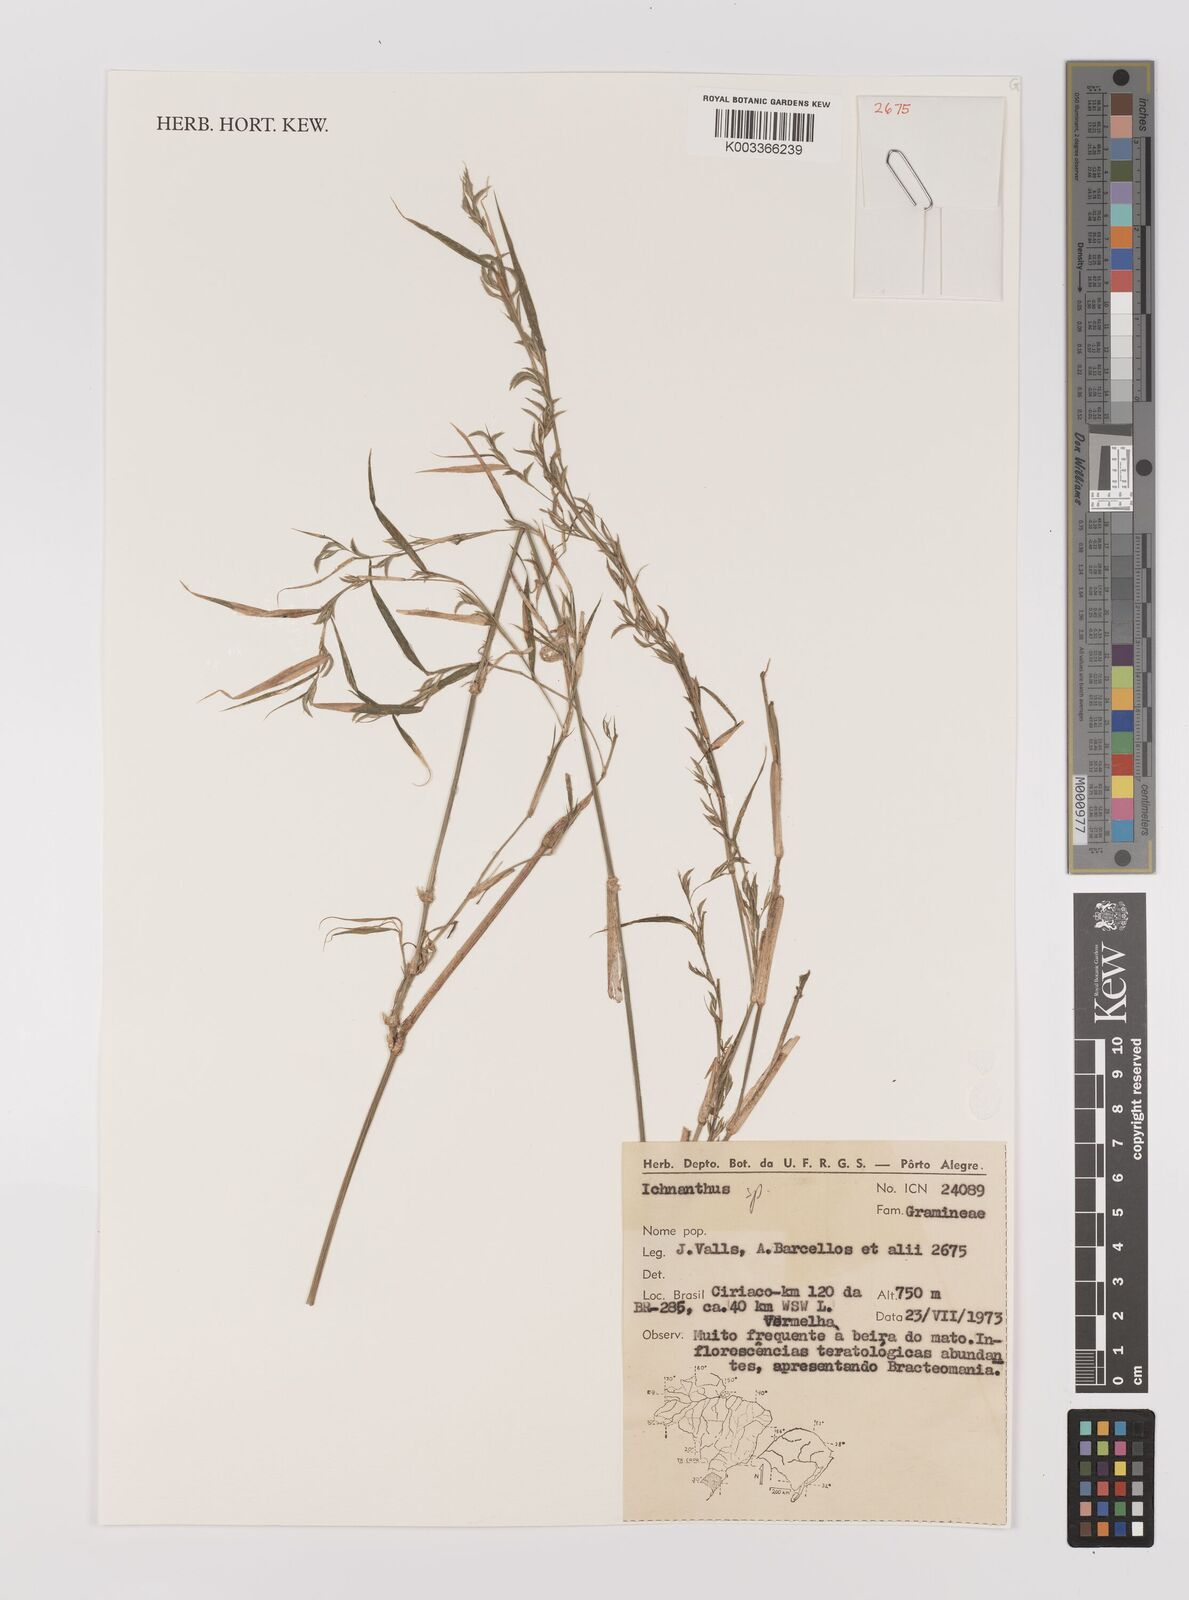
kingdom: Plantae
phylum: Tracheophyta
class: Liliopsida
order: Poales
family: Poaceae
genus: Ichnanthus
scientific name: Ichnanthus
